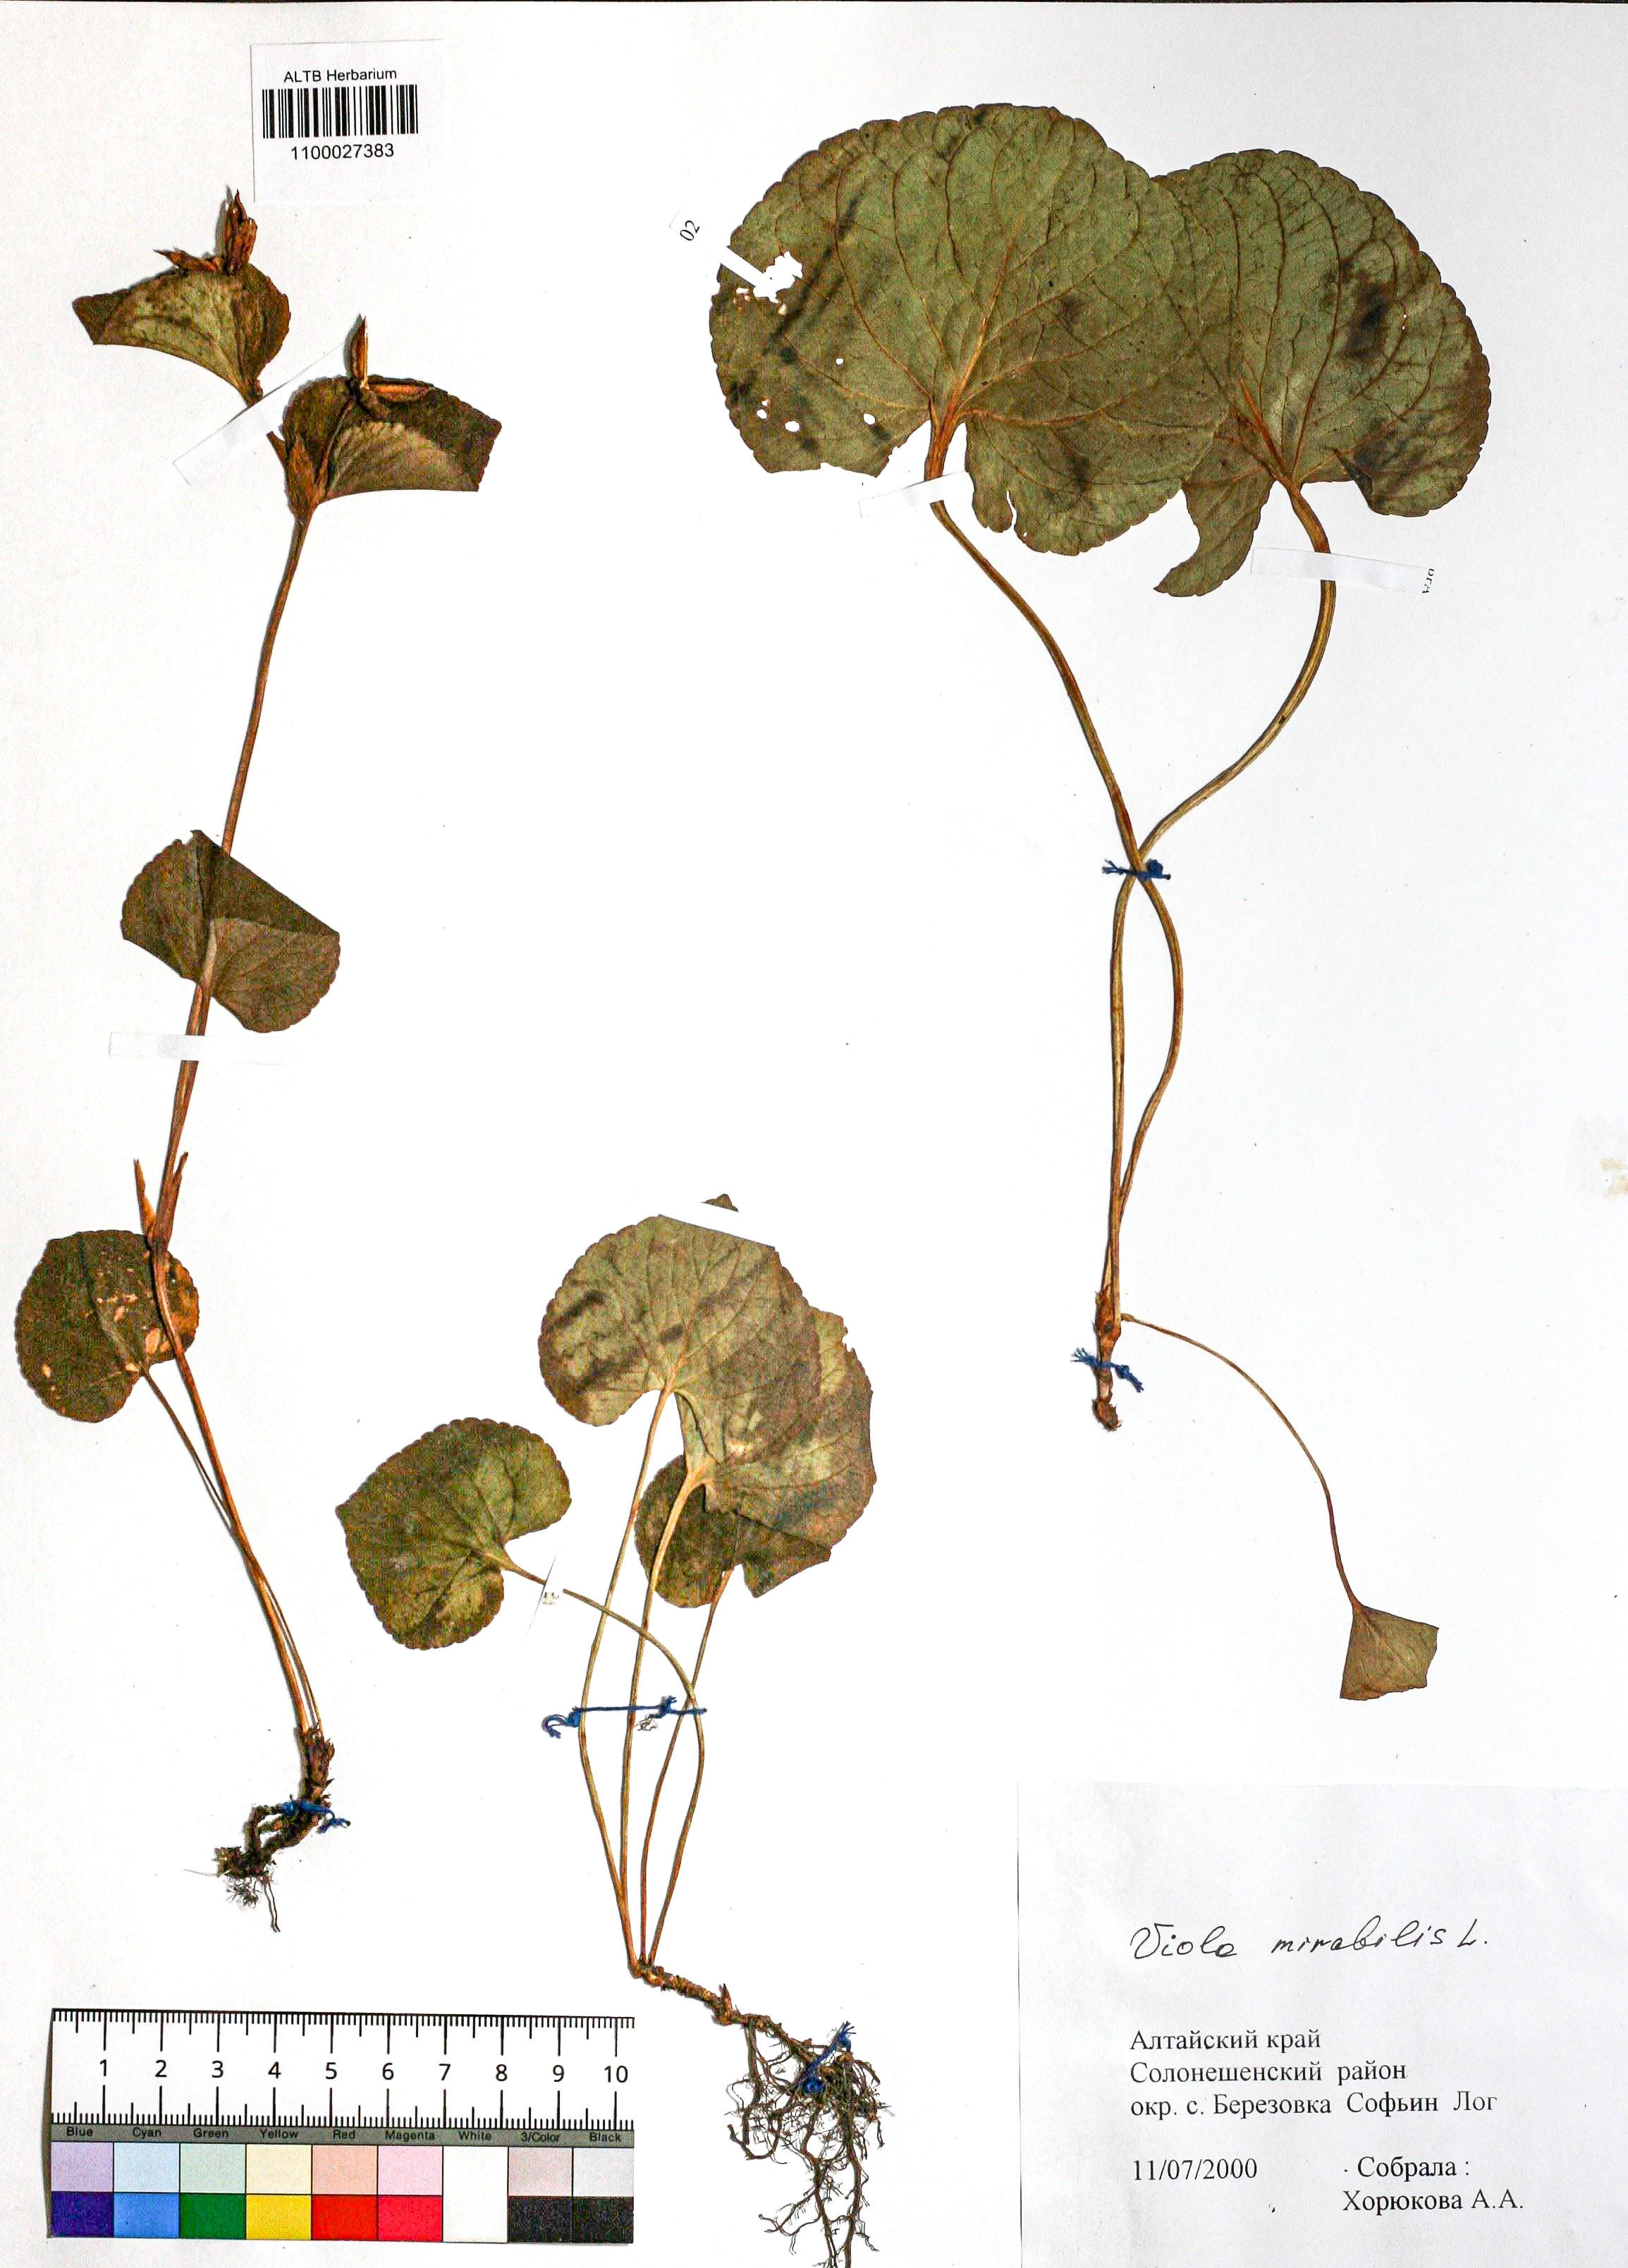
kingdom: Plantae
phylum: Tracheophyta
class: Magnoliopsida
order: Malpighiales
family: Violaceae
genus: Viola
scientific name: Viola mirabilis
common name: Wonder violet
